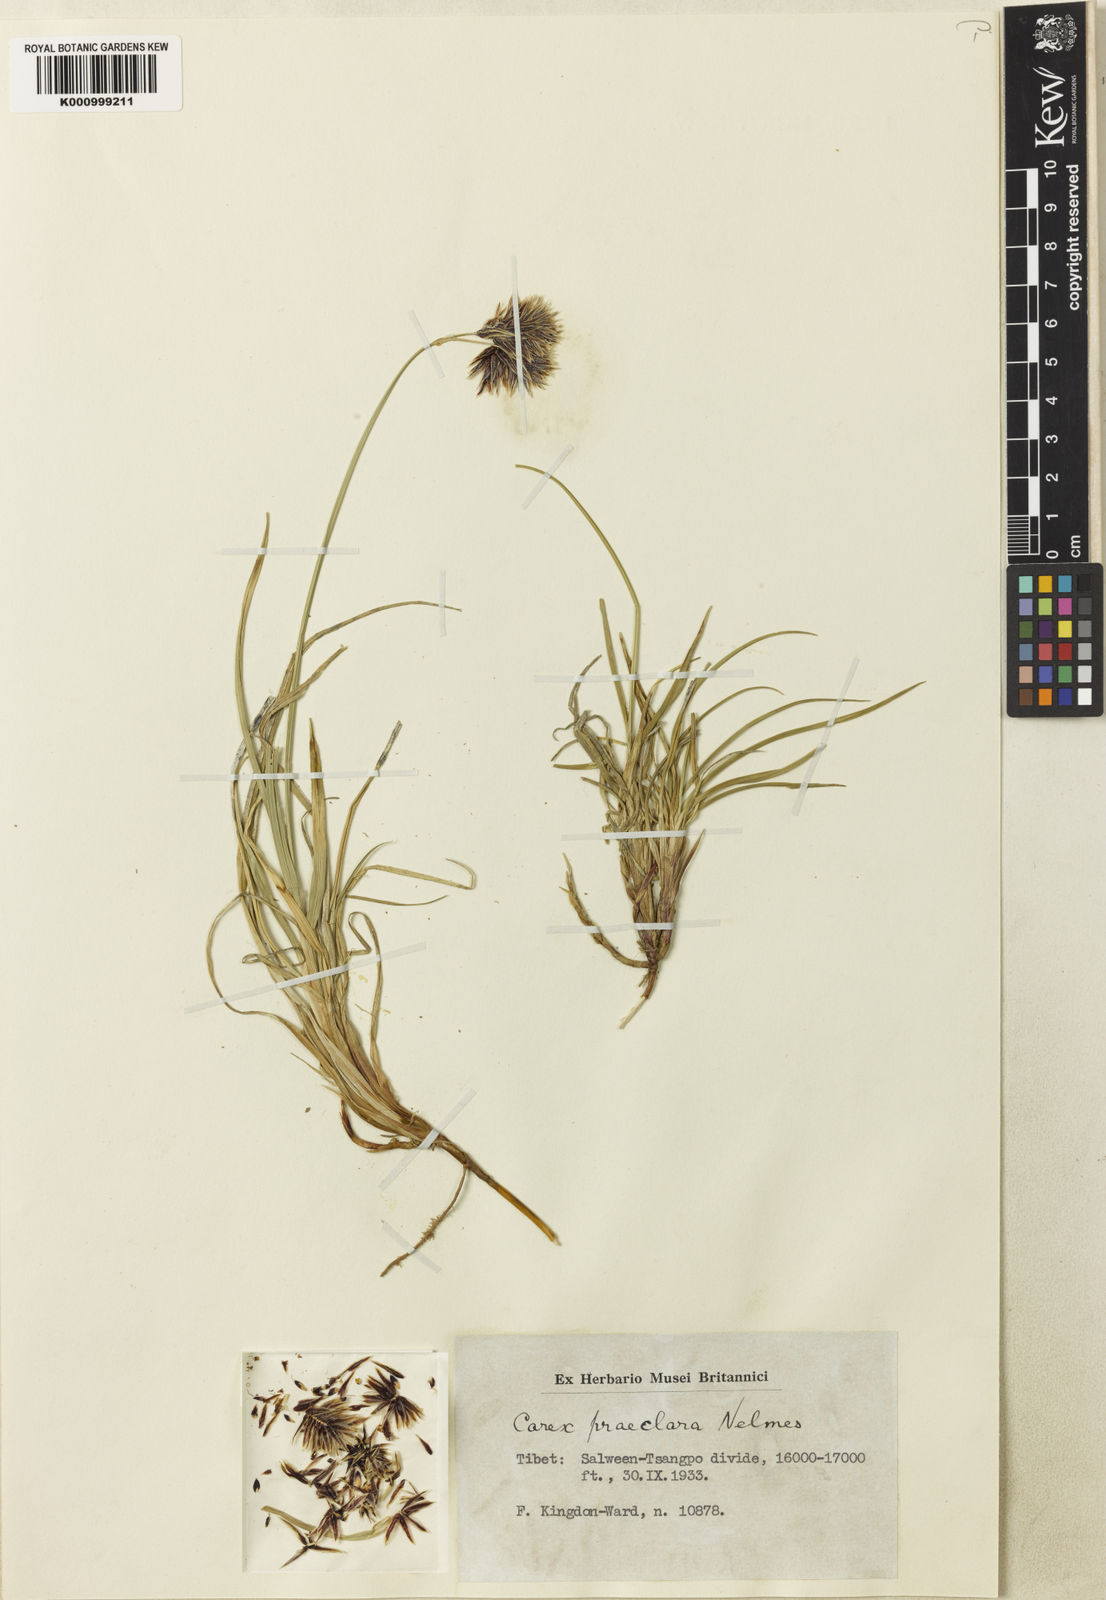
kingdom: Plantae
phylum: Tracheophyta
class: Liliopsida
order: Poales
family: Cyperaceae
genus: Carex
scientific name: Carex praeclara
